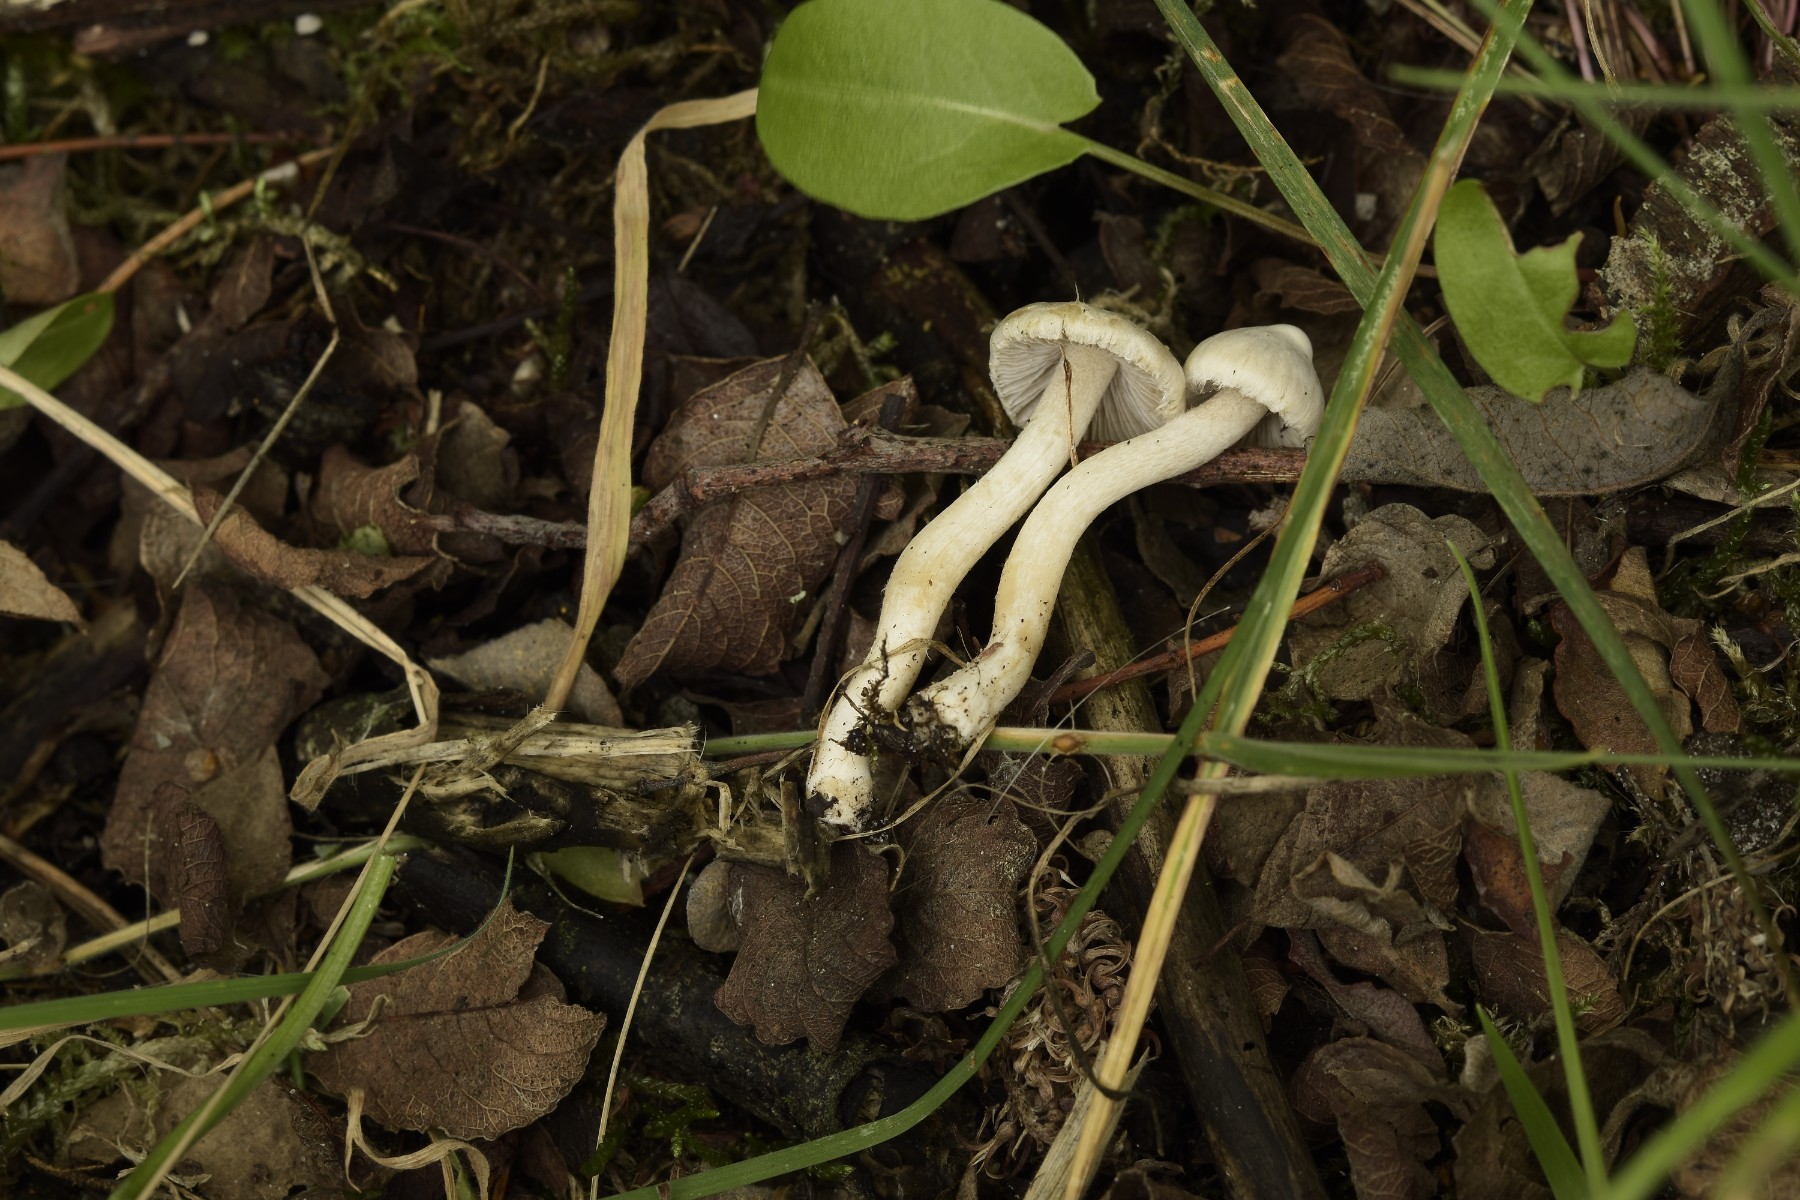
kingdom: Fungi
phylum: Basidiomycota
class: Agaricomycetes
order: Agaricales
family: Inocybaceae
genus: Inocybe
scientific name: Inocybe
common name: almindelig trævlhat
